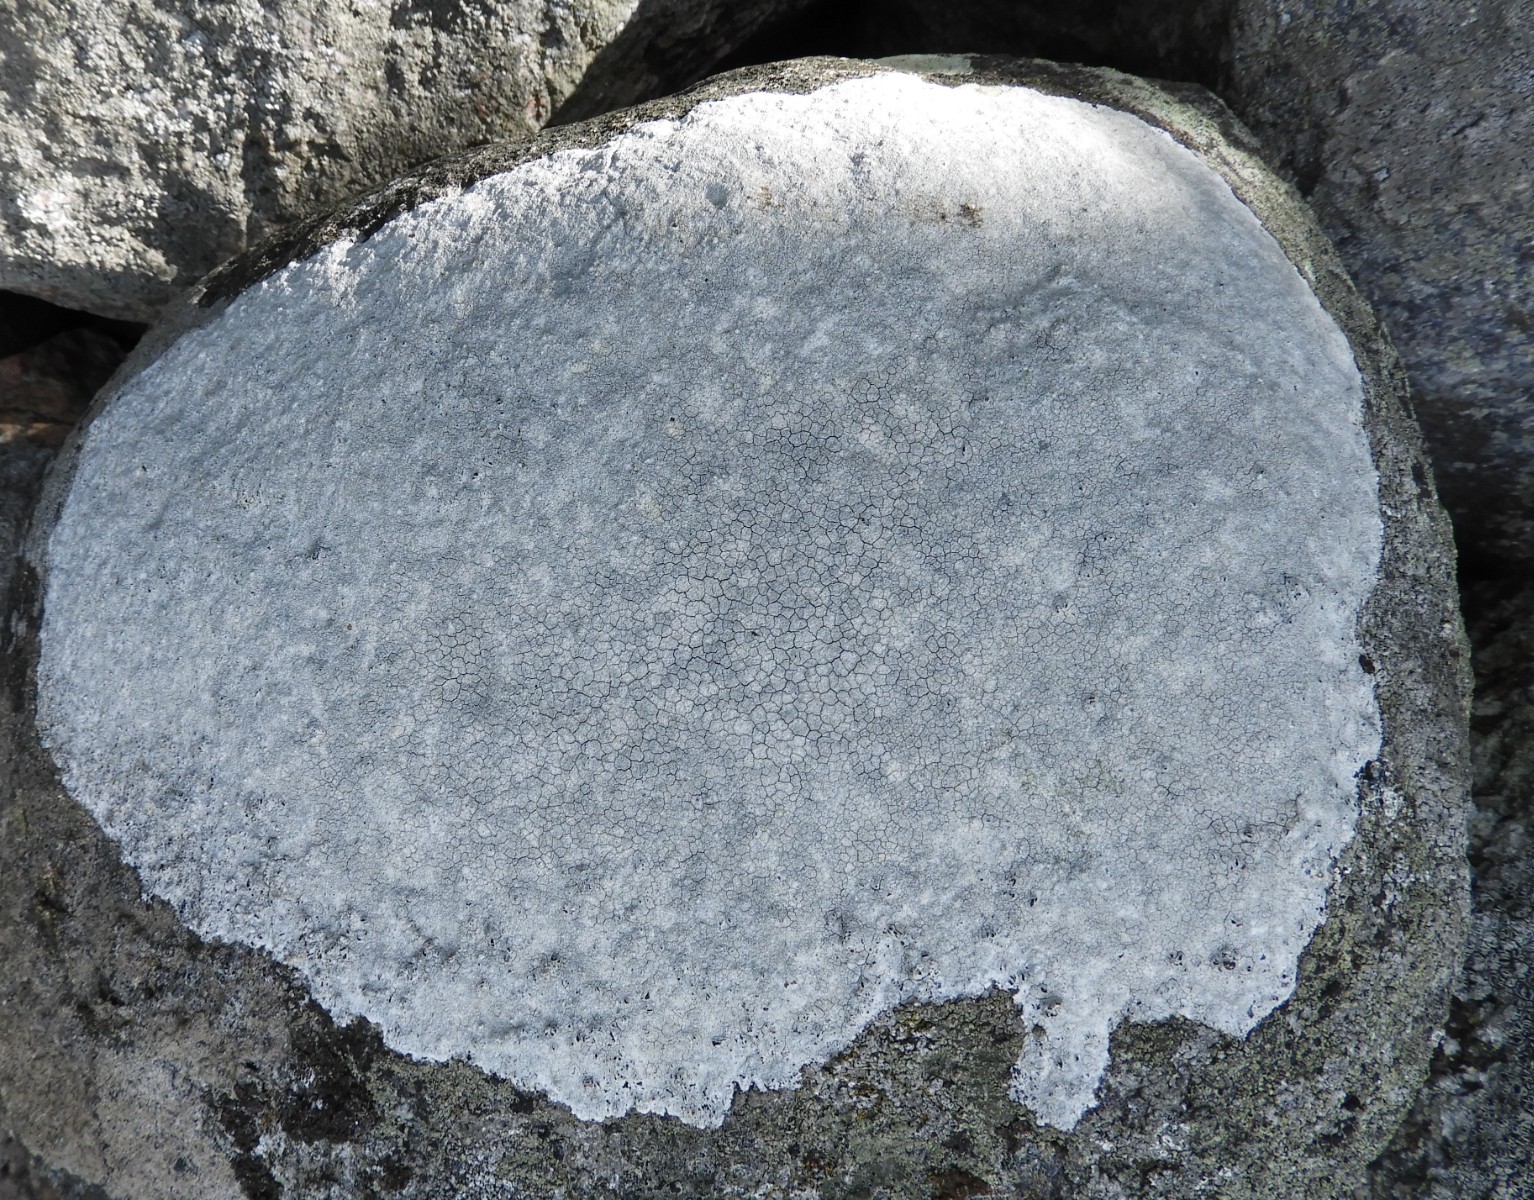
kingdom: Fungi
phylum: Ascomycota
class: Lecanoromycetes
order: Lecanorales
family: Lecanoraceae
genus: Glaucomaria
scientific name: Glaucomaria rupicola
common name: stengærde-kantskivelav
